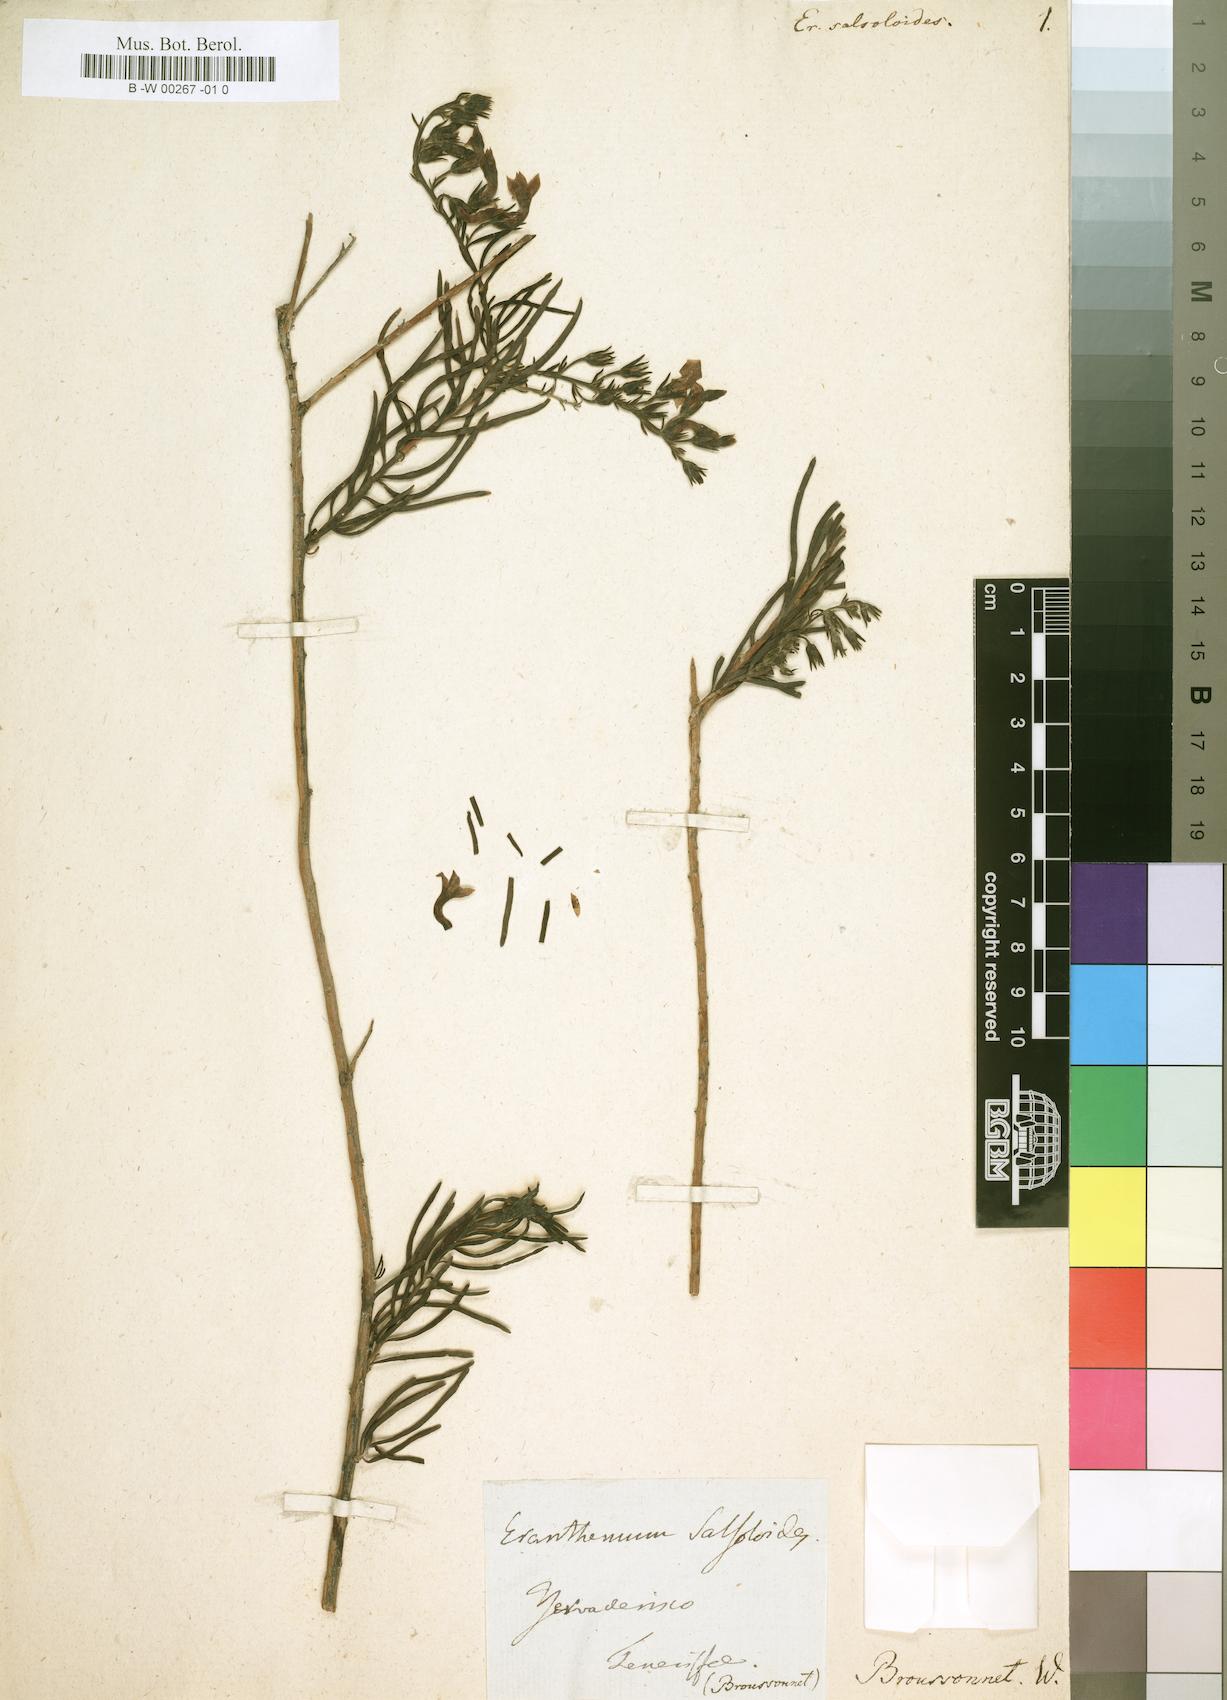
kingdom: Plantae
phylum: Tracheophyta
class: Magnoliopsida
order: Lamiales
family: Plantaginaceae
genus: Campylanthus
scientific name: Campylanthus salsoloides
